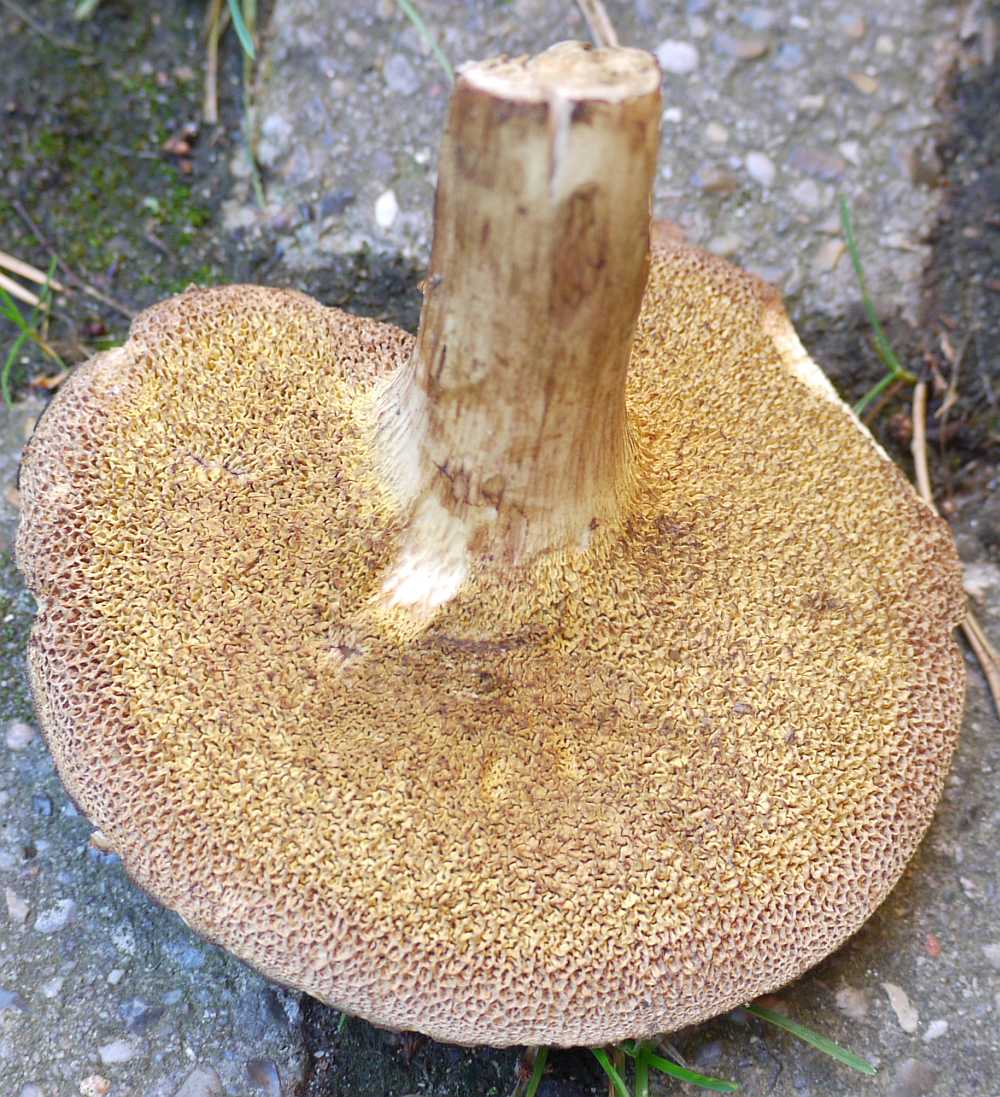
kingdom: Fungi
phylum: Basidiomycota
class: Agaricomycetes
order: Boletales
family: Boletaceae
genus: Buchwaldoboletus
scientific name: Buchwaldoboletus lignicola
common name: stødrørhat
